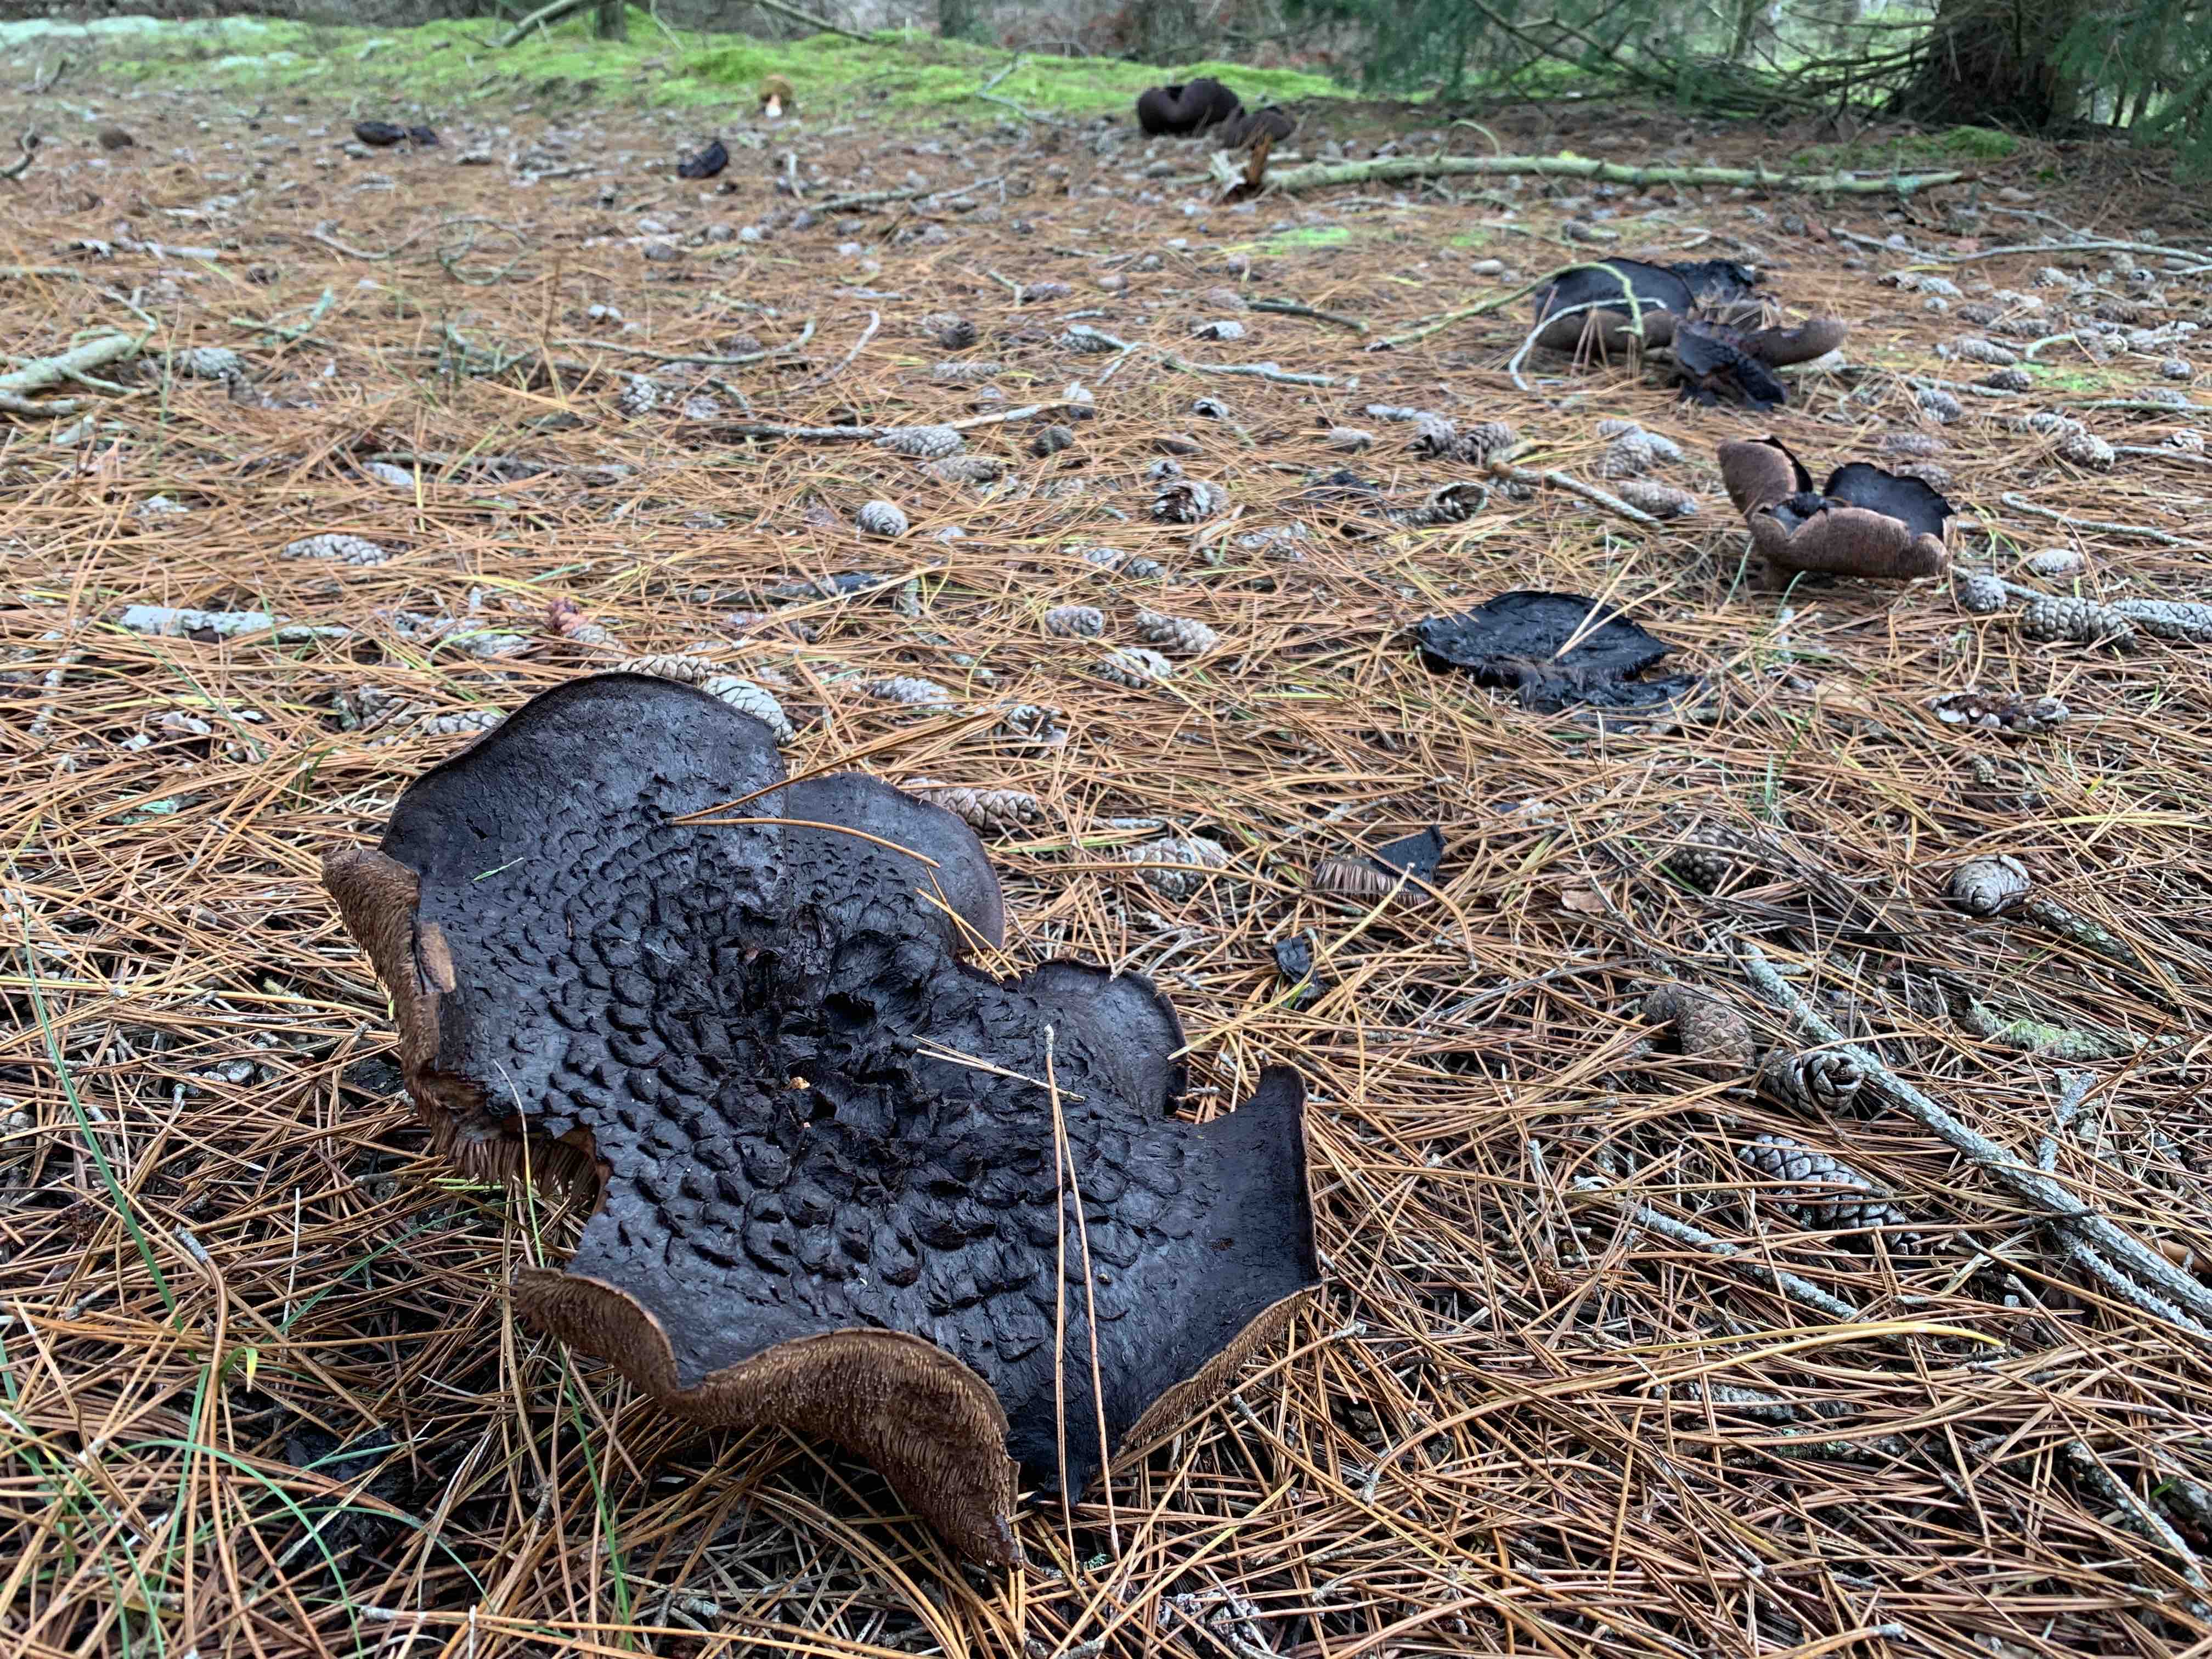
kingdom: Fungi
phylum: Basidiomycota
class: Agaricomycetes
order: Thelephorales
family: Bankeraceae
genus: Sarcodon
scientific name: Sarcodon squamosus
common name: småskællet kødpigsvamp
